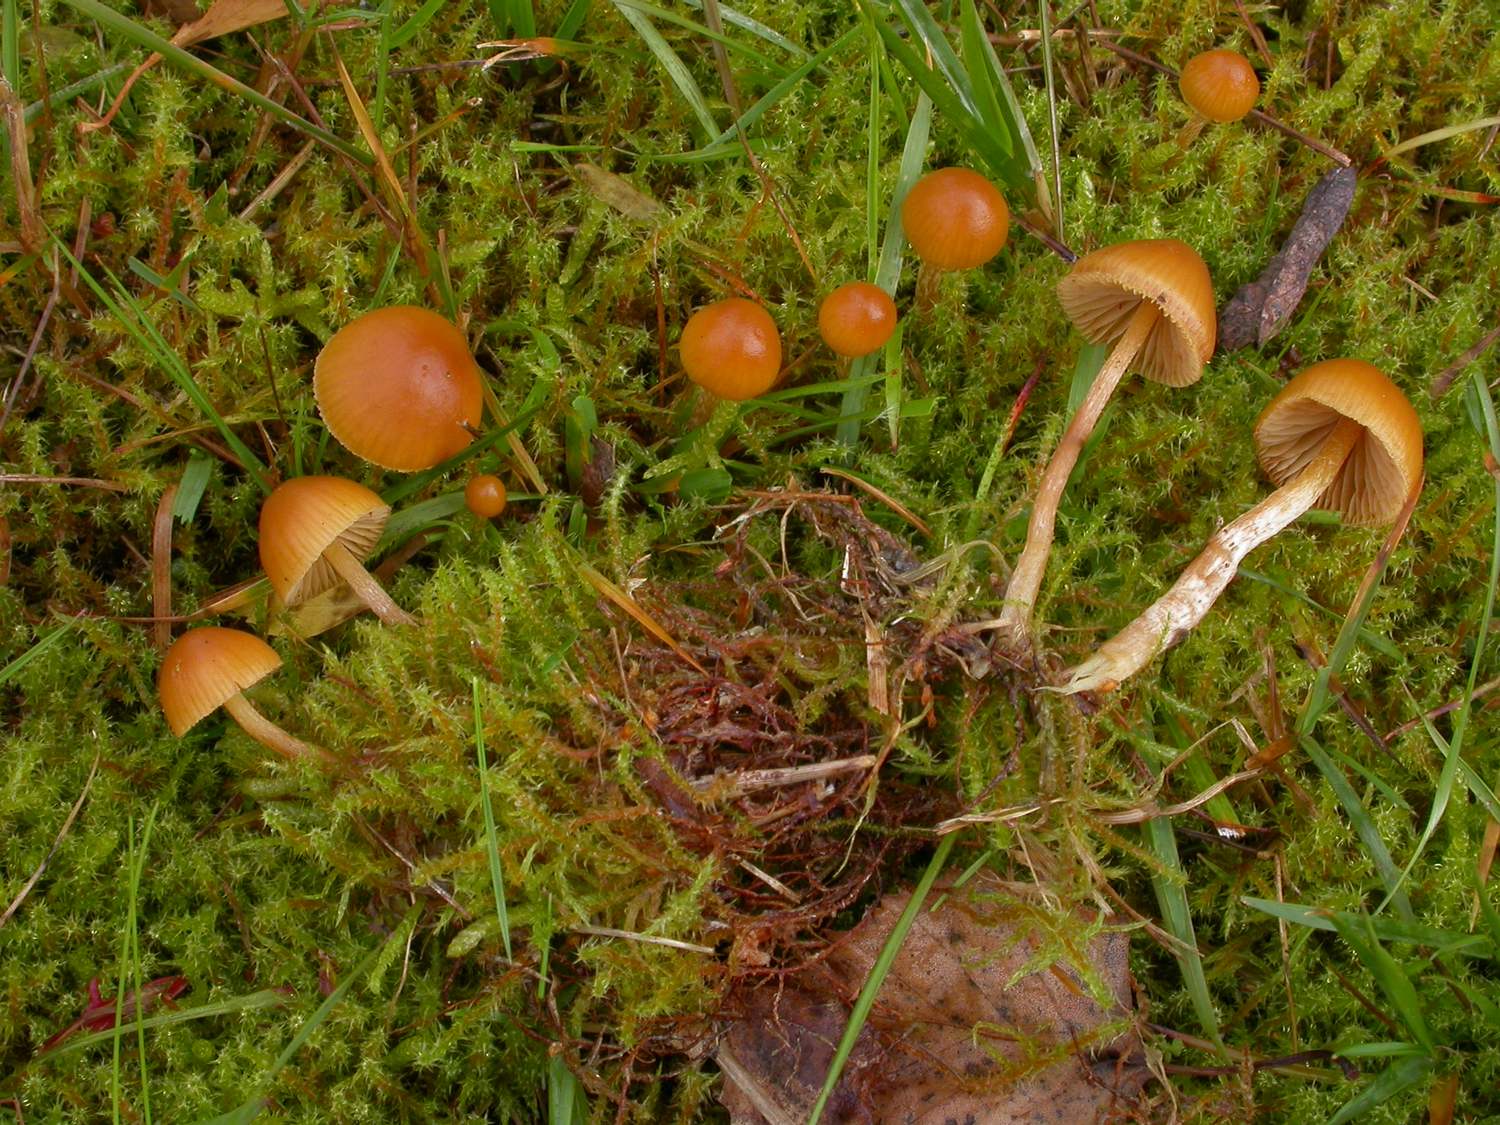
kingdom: Fungi
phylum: Basidiomycota
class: Agaricomycetes
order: Agaricales
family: Hymenogastraceae
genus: Galerina
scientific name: Galerina pumila
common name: honninggul hjelmhat
